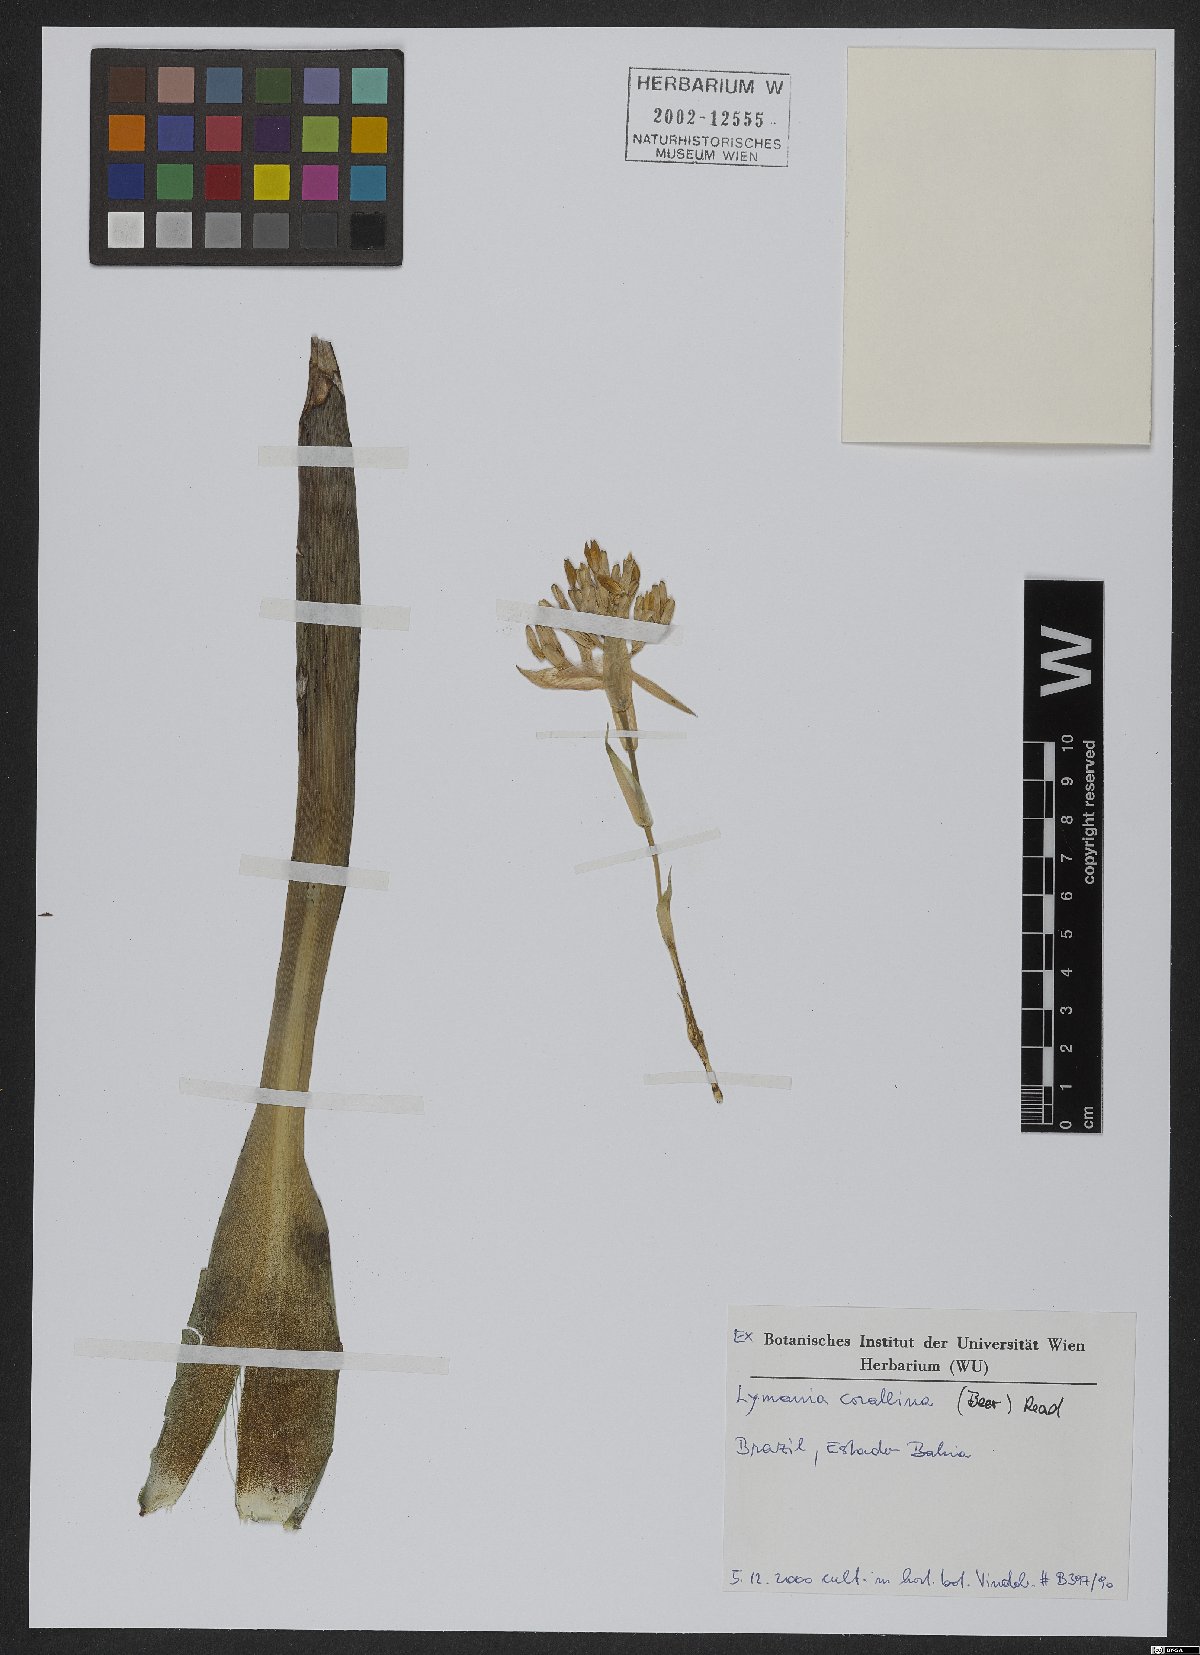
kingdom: Plantae
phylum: Tracheophyta
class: Liliopsida
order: Poales
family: Bromeliaceae
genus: Lymania
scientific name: Lymania corallina
